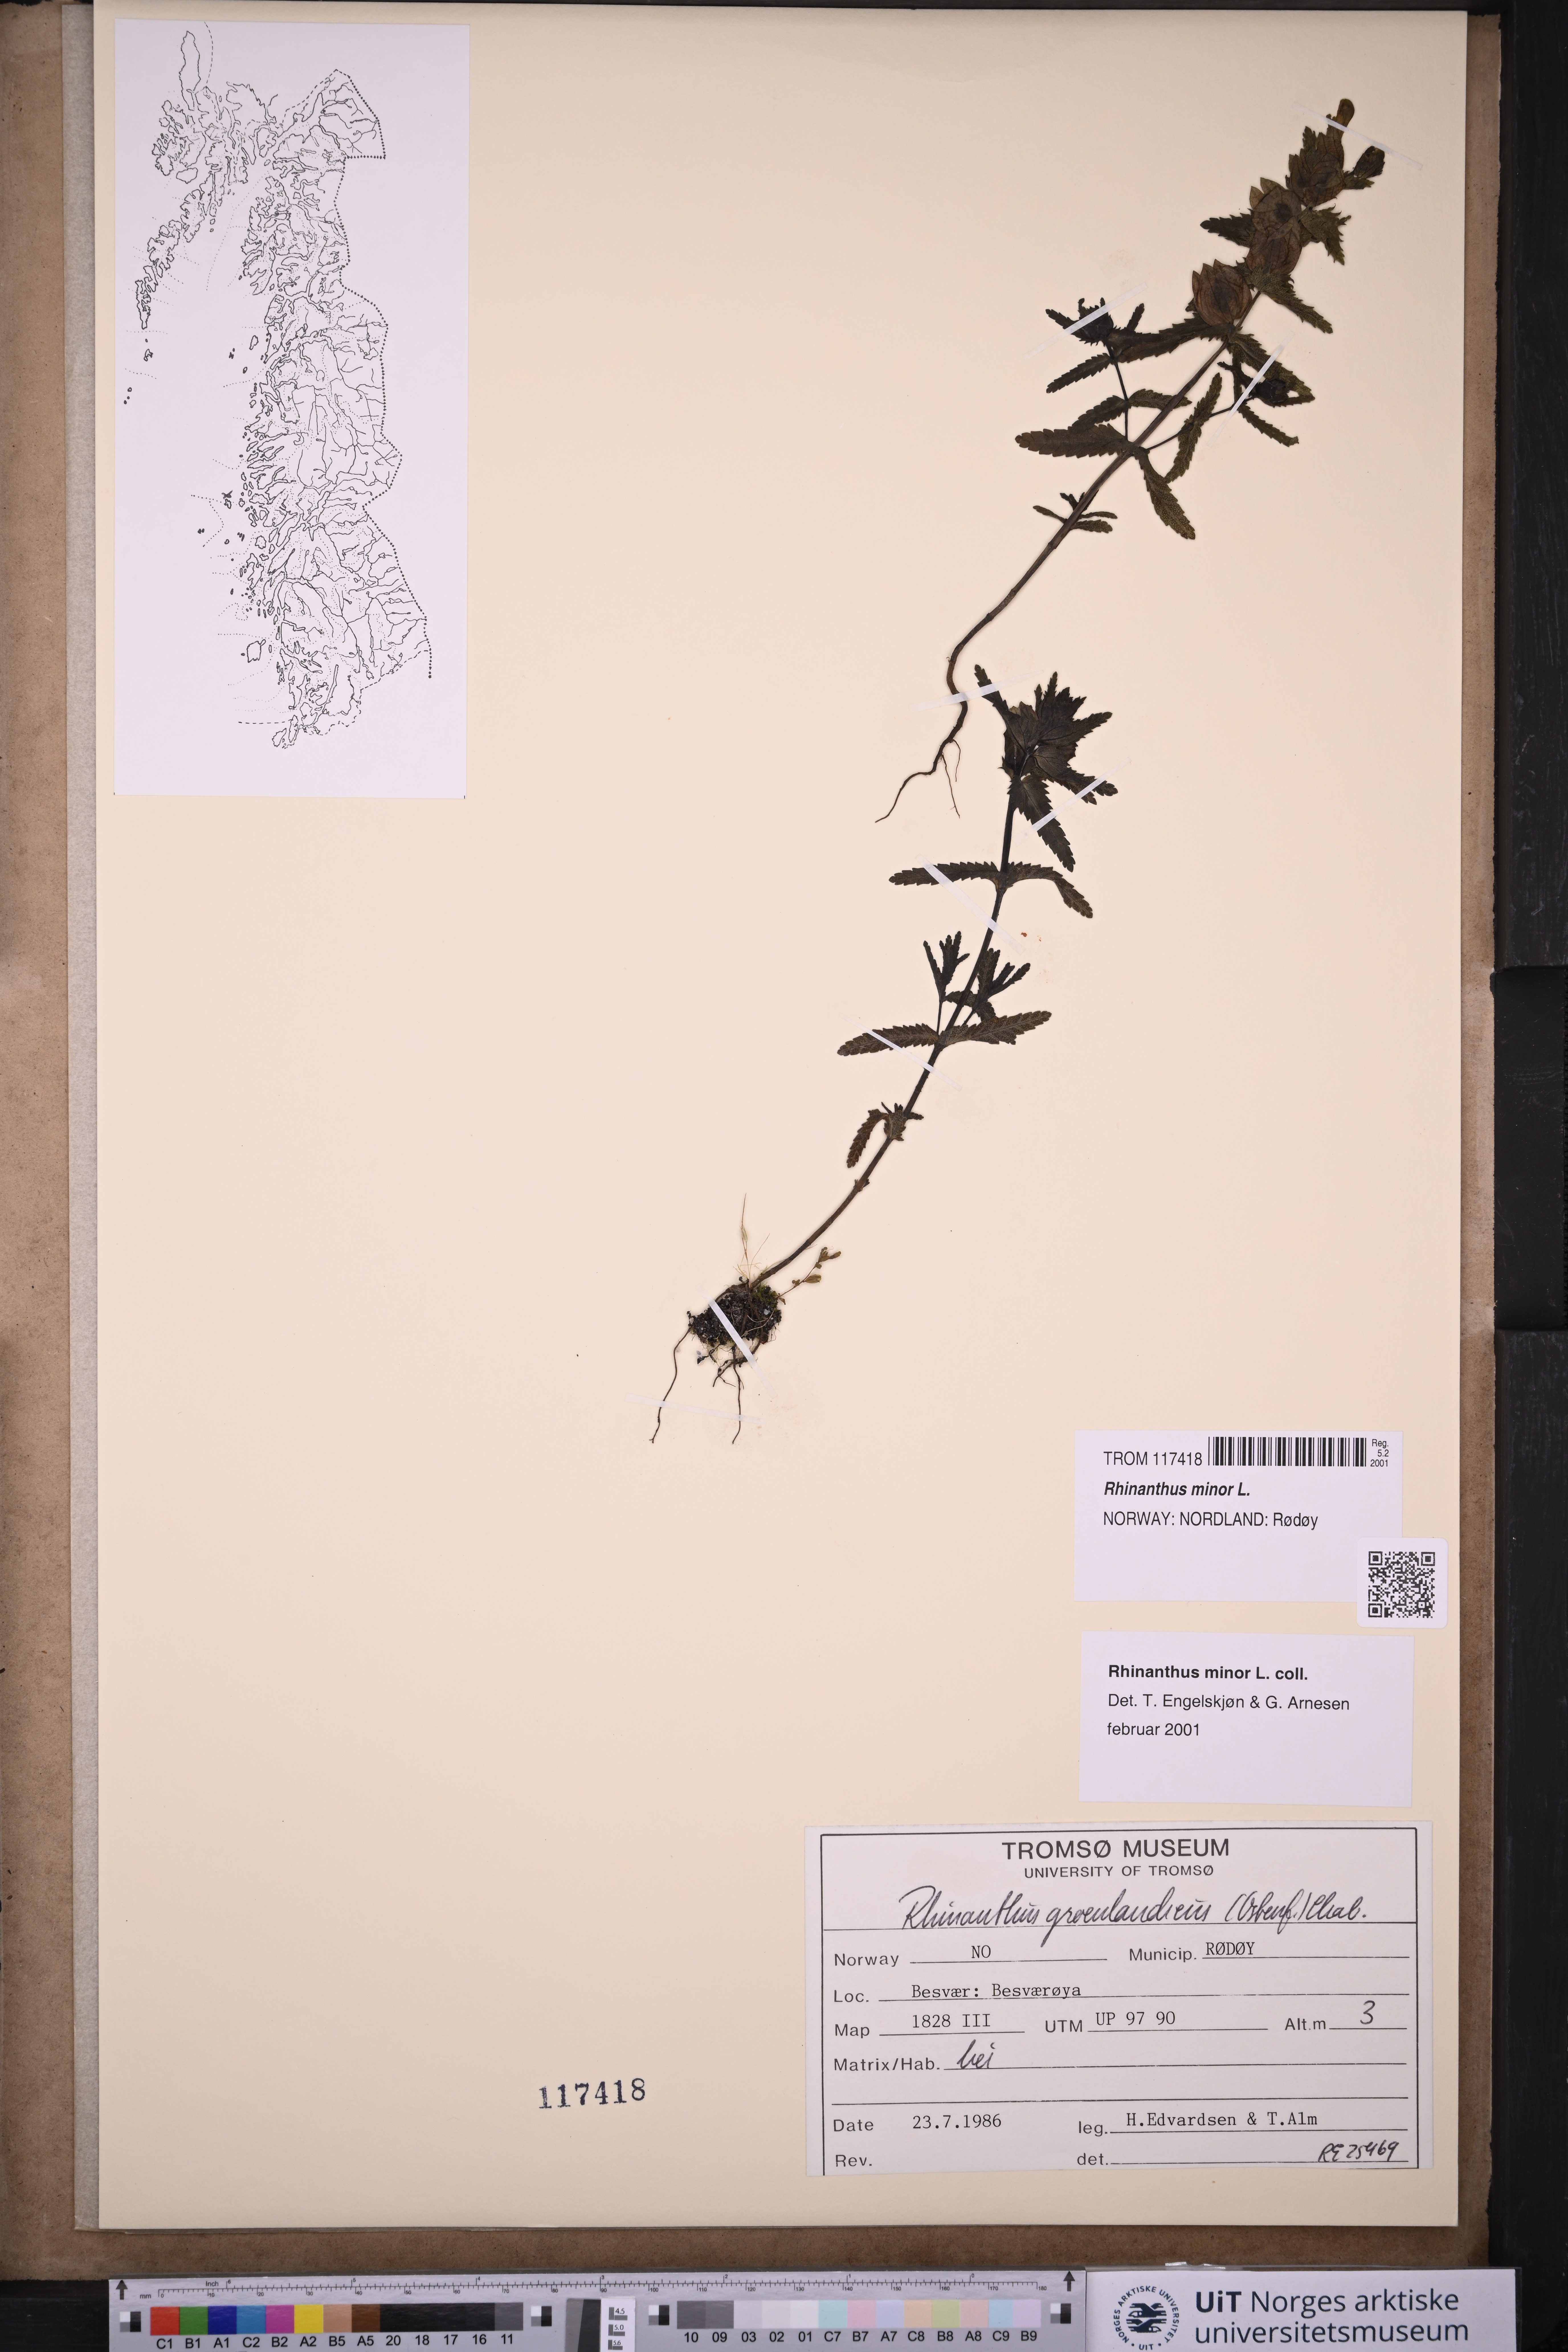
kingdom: Plantae
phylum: Tracheophyta
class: Magnoliopsida
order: Lamiales
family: Orobanchaceae
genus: Rhinanthus
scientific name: Rhinanthus minor
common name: Yellow-rattle
